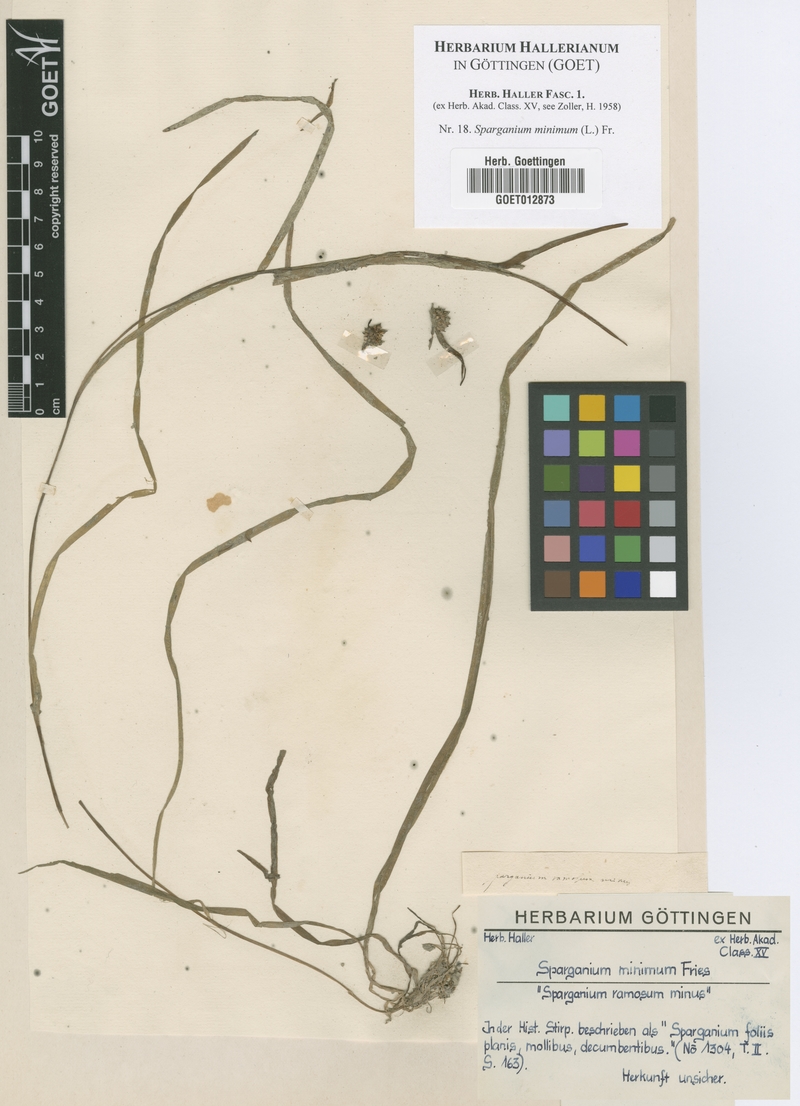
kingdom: Plantae
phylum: Tracheophyta
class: Liliopsida
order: Poales
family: Typhaceae
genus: Sparganium
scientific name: Sparganium natans
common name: Least bur-reed
